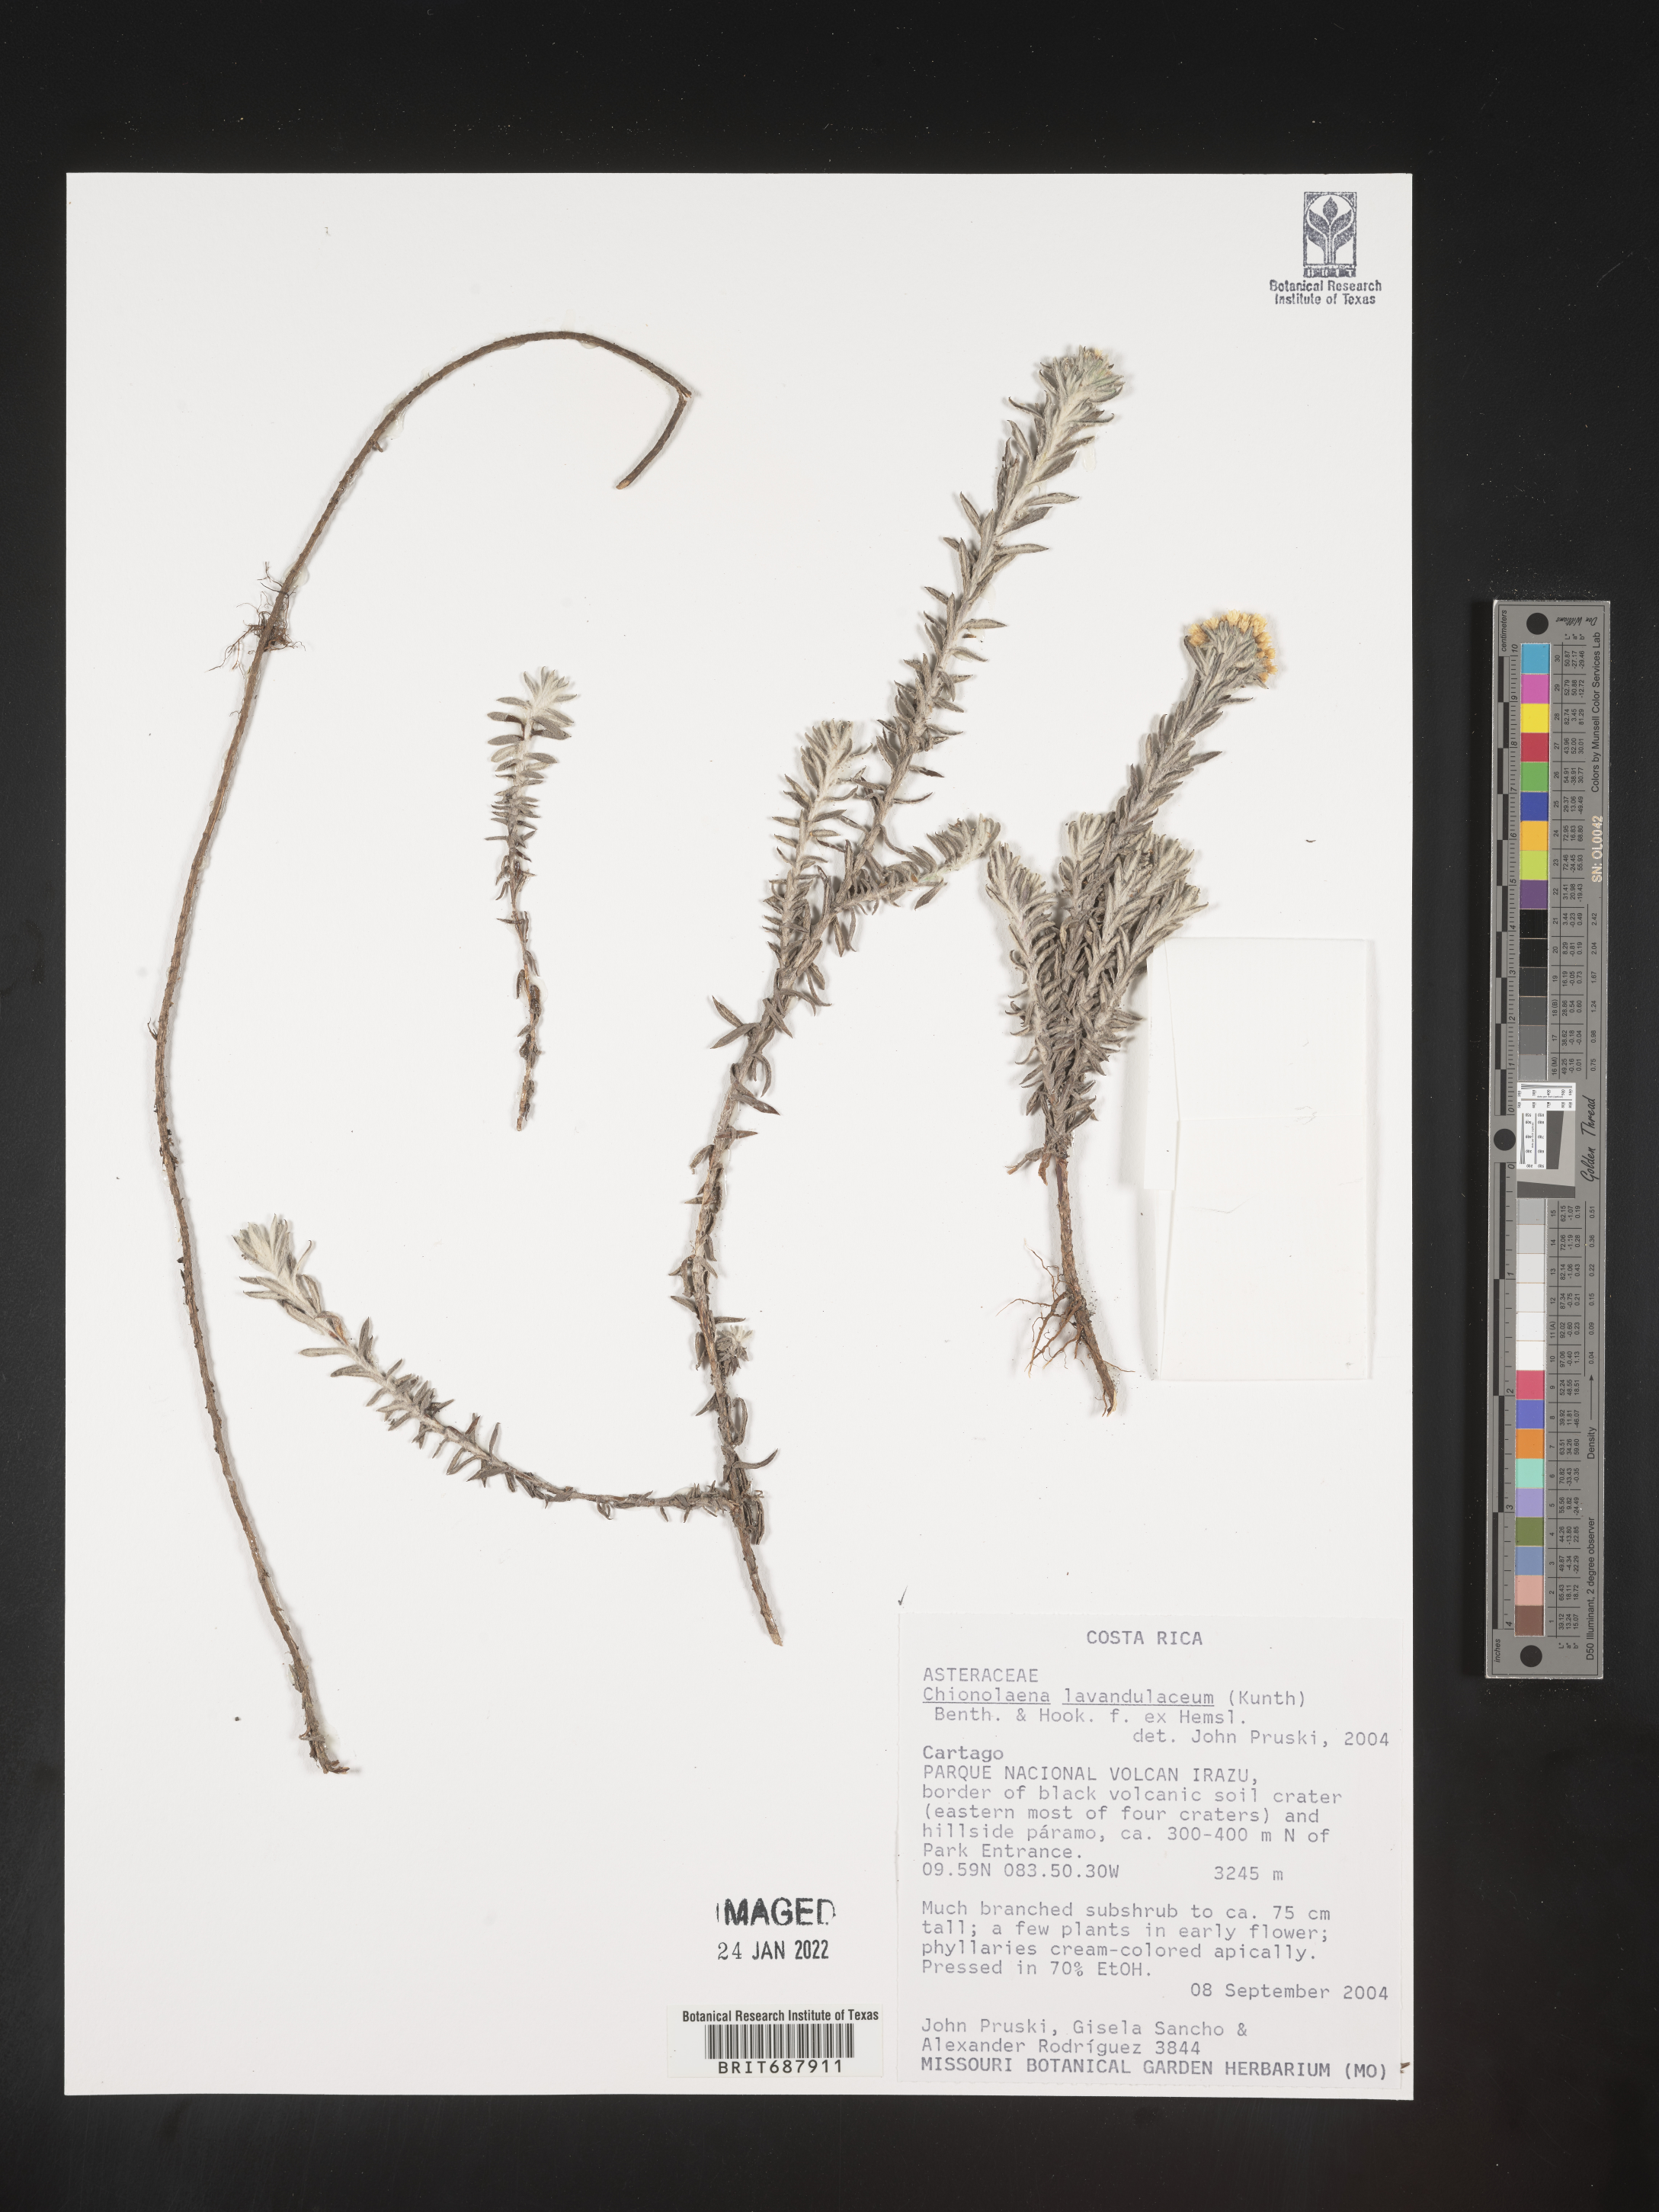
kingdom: Plantae
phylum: Tracheophyta
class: Magnoliopsida
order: Asterales
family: Asteraceae
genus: Chionolaena
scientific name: Chionolaena
